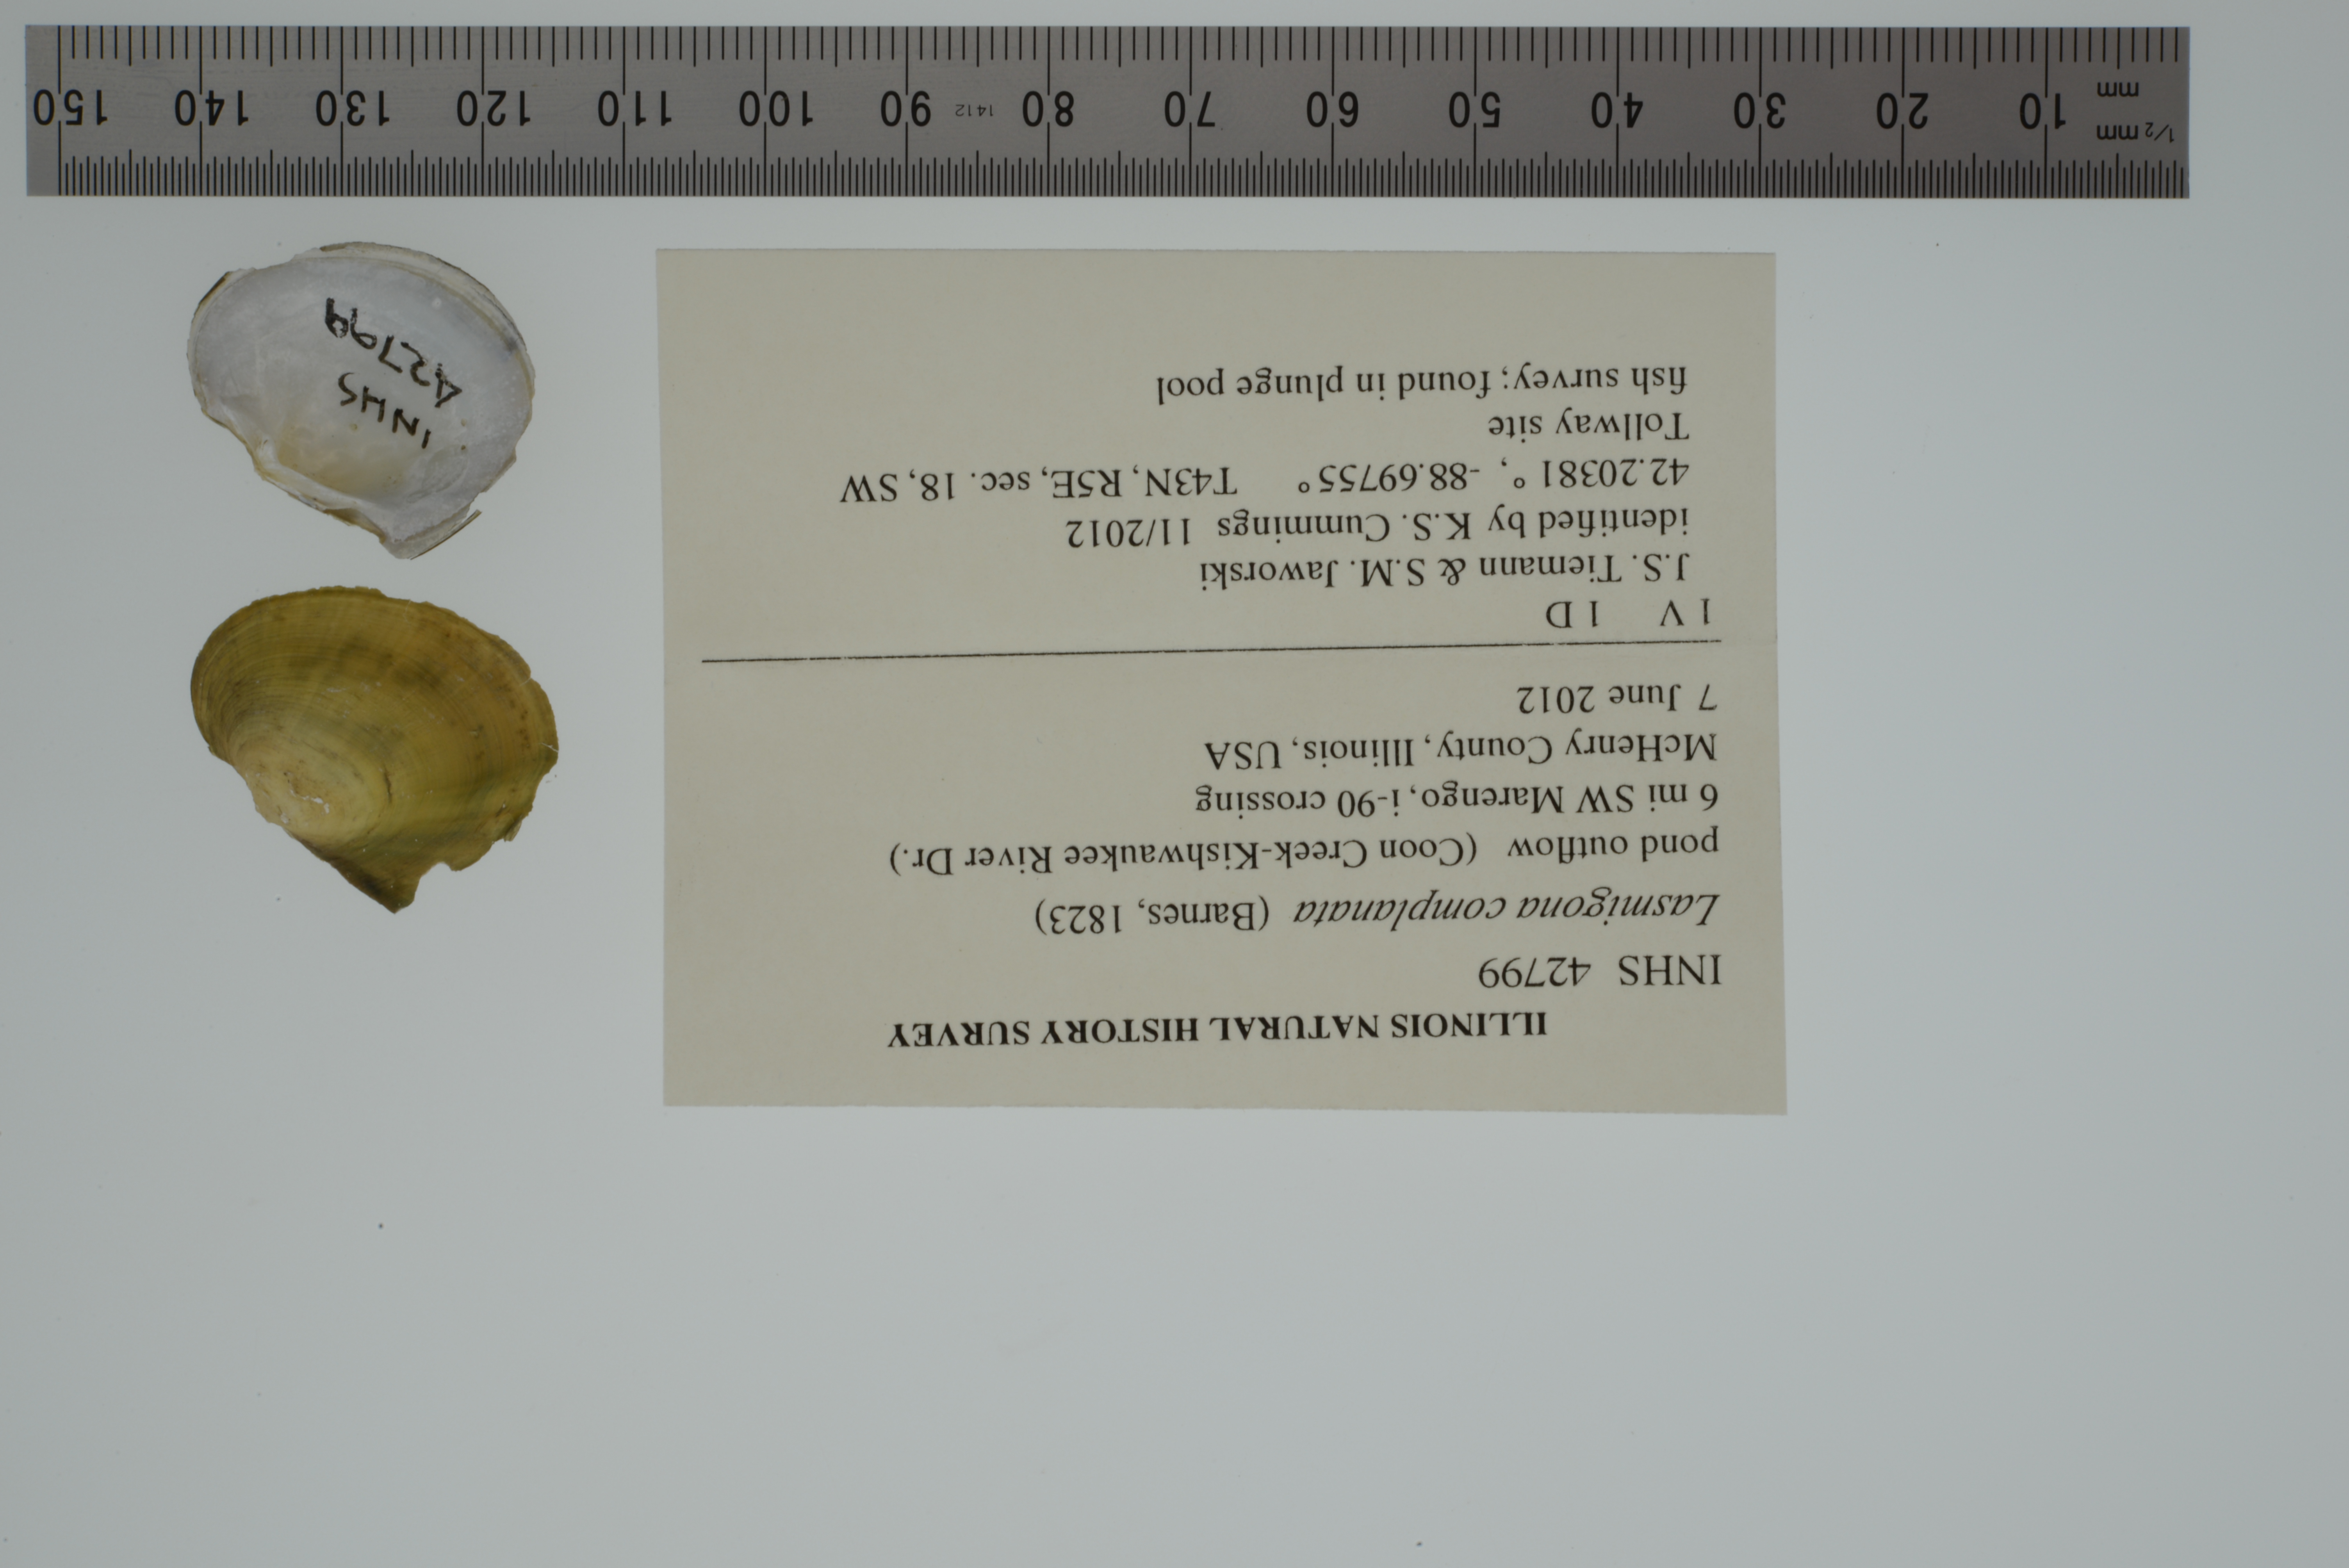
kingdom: Animalia
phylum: Mollusca
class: Bivalvia
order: Unionida
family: Unionidae
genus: Lasmigona
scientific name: Lasmigona complanata
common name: White heelsplitter
